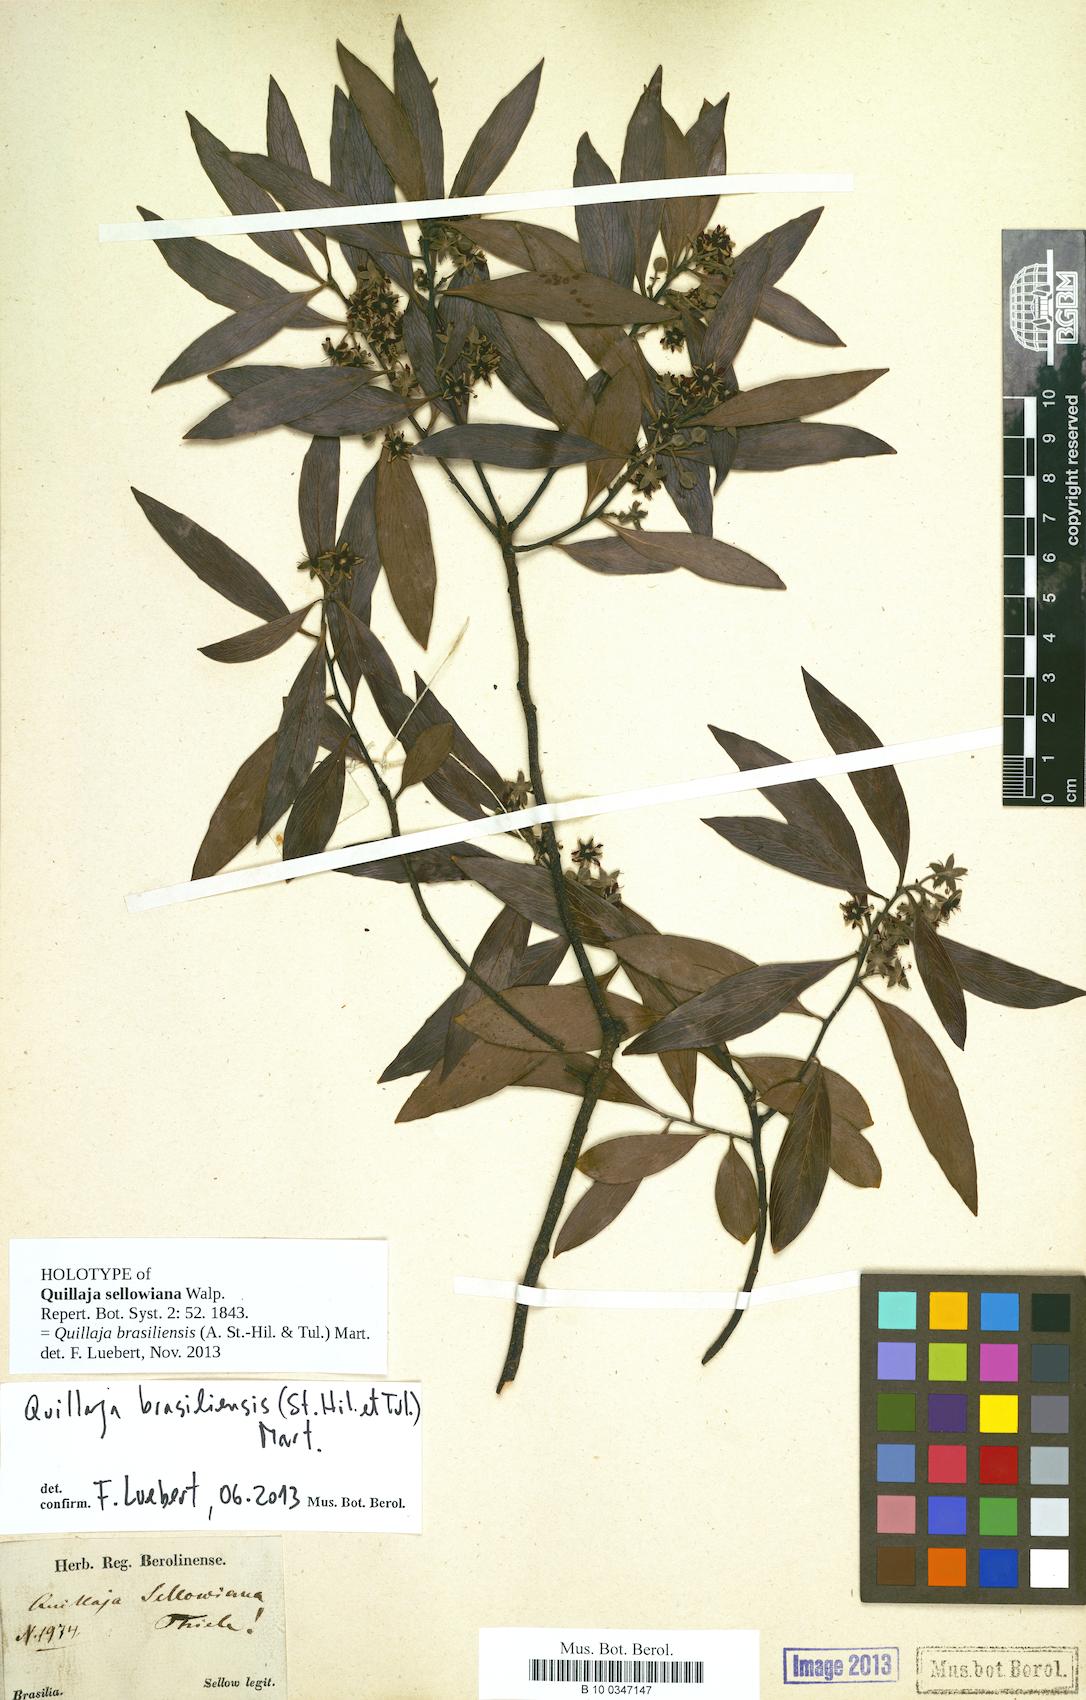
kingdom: Plantae
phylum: Tracheophyta
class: Magnoliopsida
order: Fabales
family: Quillajaceae
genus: Quillaja
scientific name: Quillaja brasiliensis
